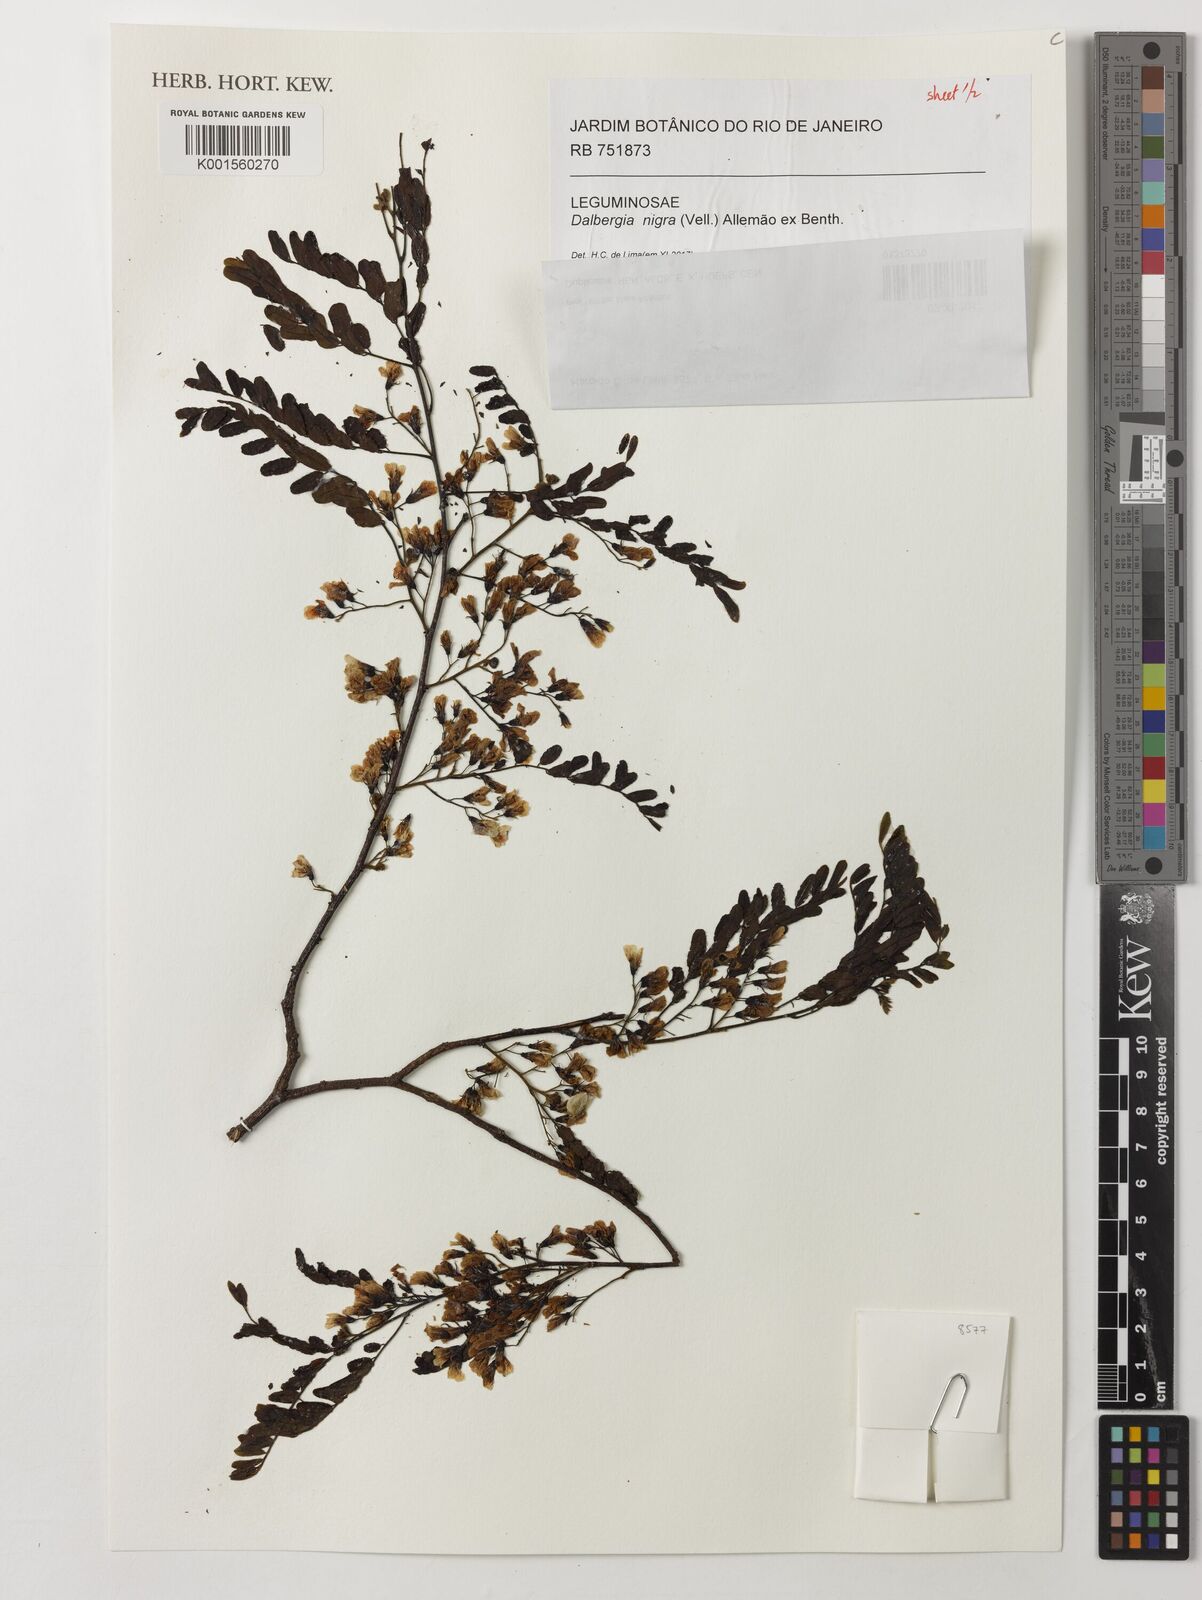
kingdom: Plantae
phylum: Tracheophyta
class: Magnoliopsida
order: Fabales
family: Fabaceae
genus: Dalbergia
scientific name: Dalbergia nigra
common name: Bahia rosewood
